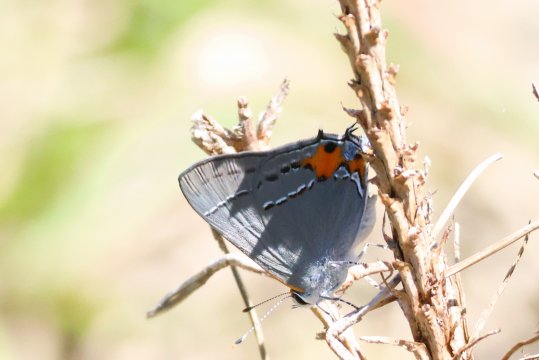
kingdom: Animalia
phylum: Arthropoda
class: Insecta
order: Lepidoptera
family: Lycaenidae
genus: Strymon
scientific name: Strymon melinus
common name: Gray Hairstreak
